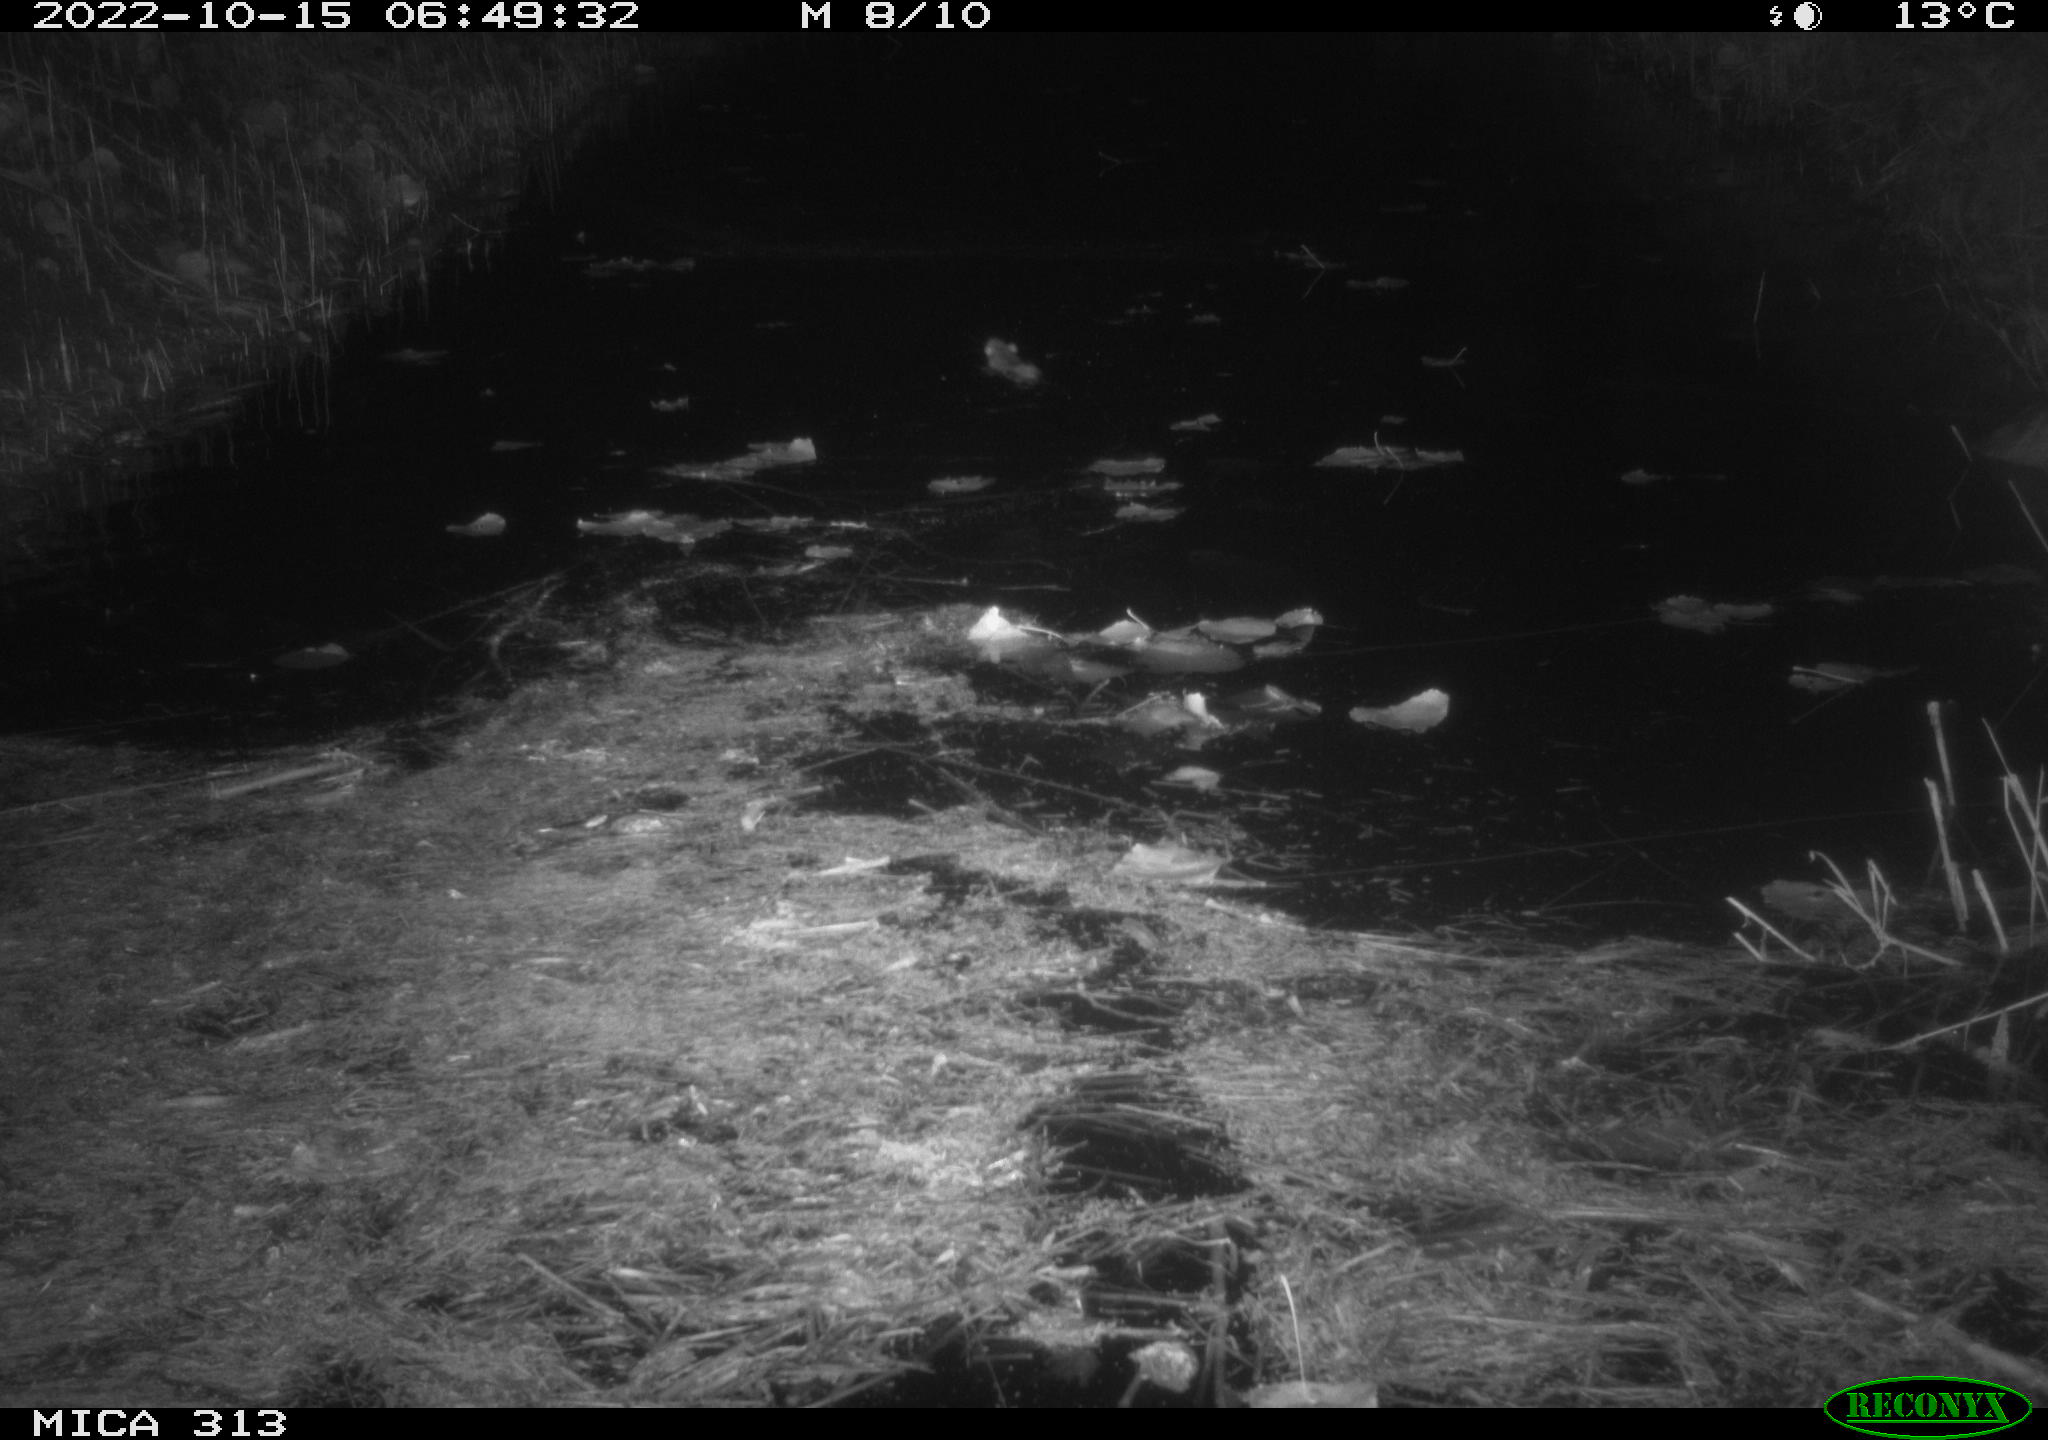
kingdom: Animalia
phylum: Chordata
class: Mammalia
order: Rodentia
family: Muridae
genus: Rattus
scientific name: Rattus norvegicus
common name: Brown rat
